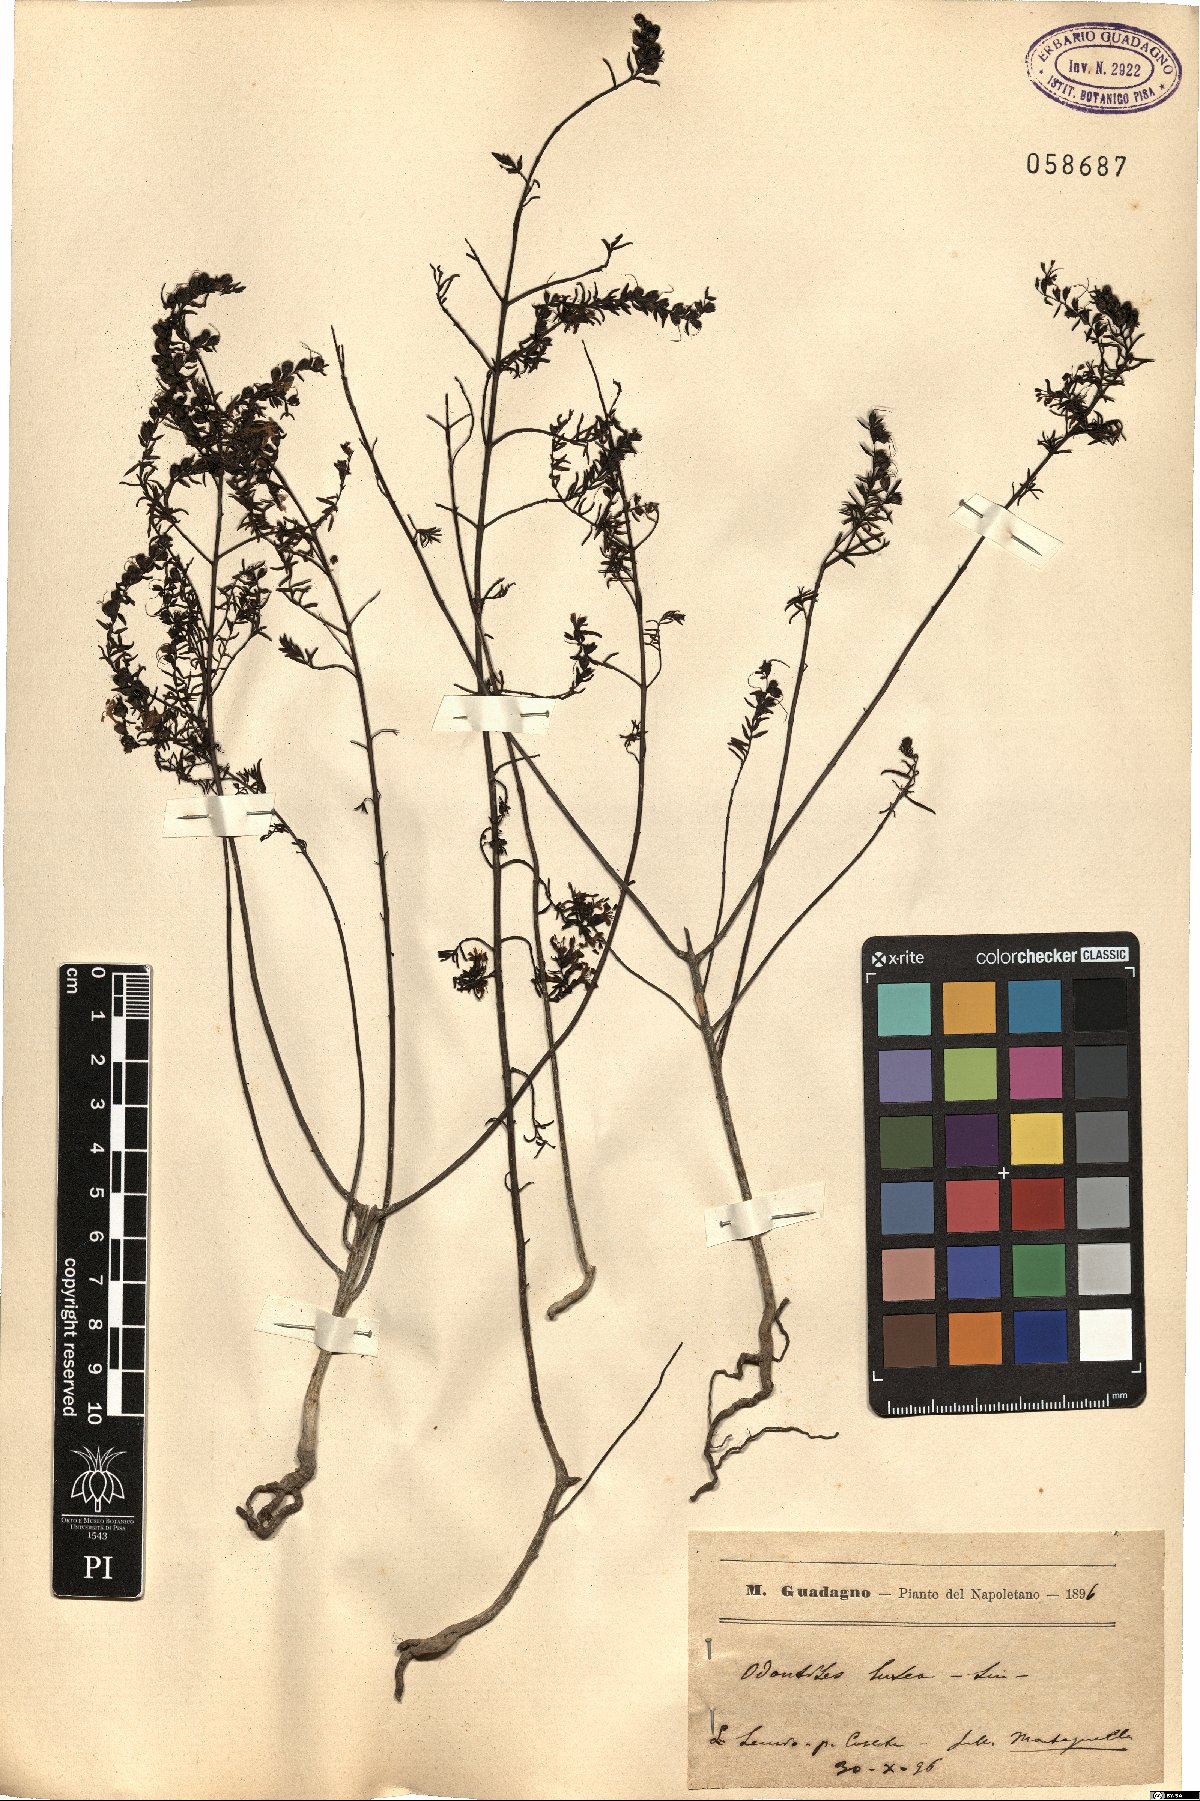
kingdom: Plantae
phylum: Tracheophyta
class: Magnoliopsida
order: Lamiales
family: Orobanchaceae
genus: Odontites
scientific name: Odontites luteus
